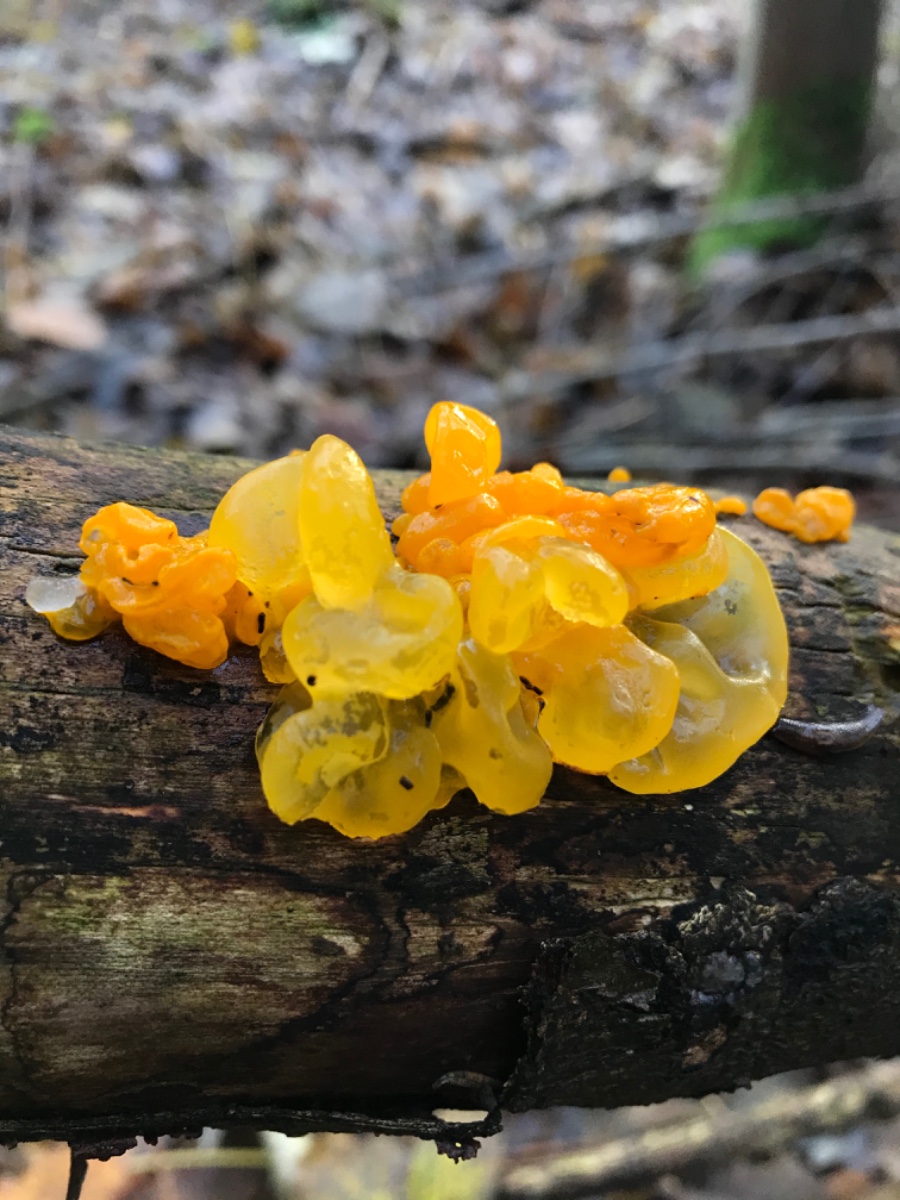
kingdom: Fungi
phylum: Basidiomycota
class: Tremellomycetes
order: Tremellales
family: Tremellaceae
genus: Tremella
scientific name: Tremella mesenterica
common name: gul bævresvamp
